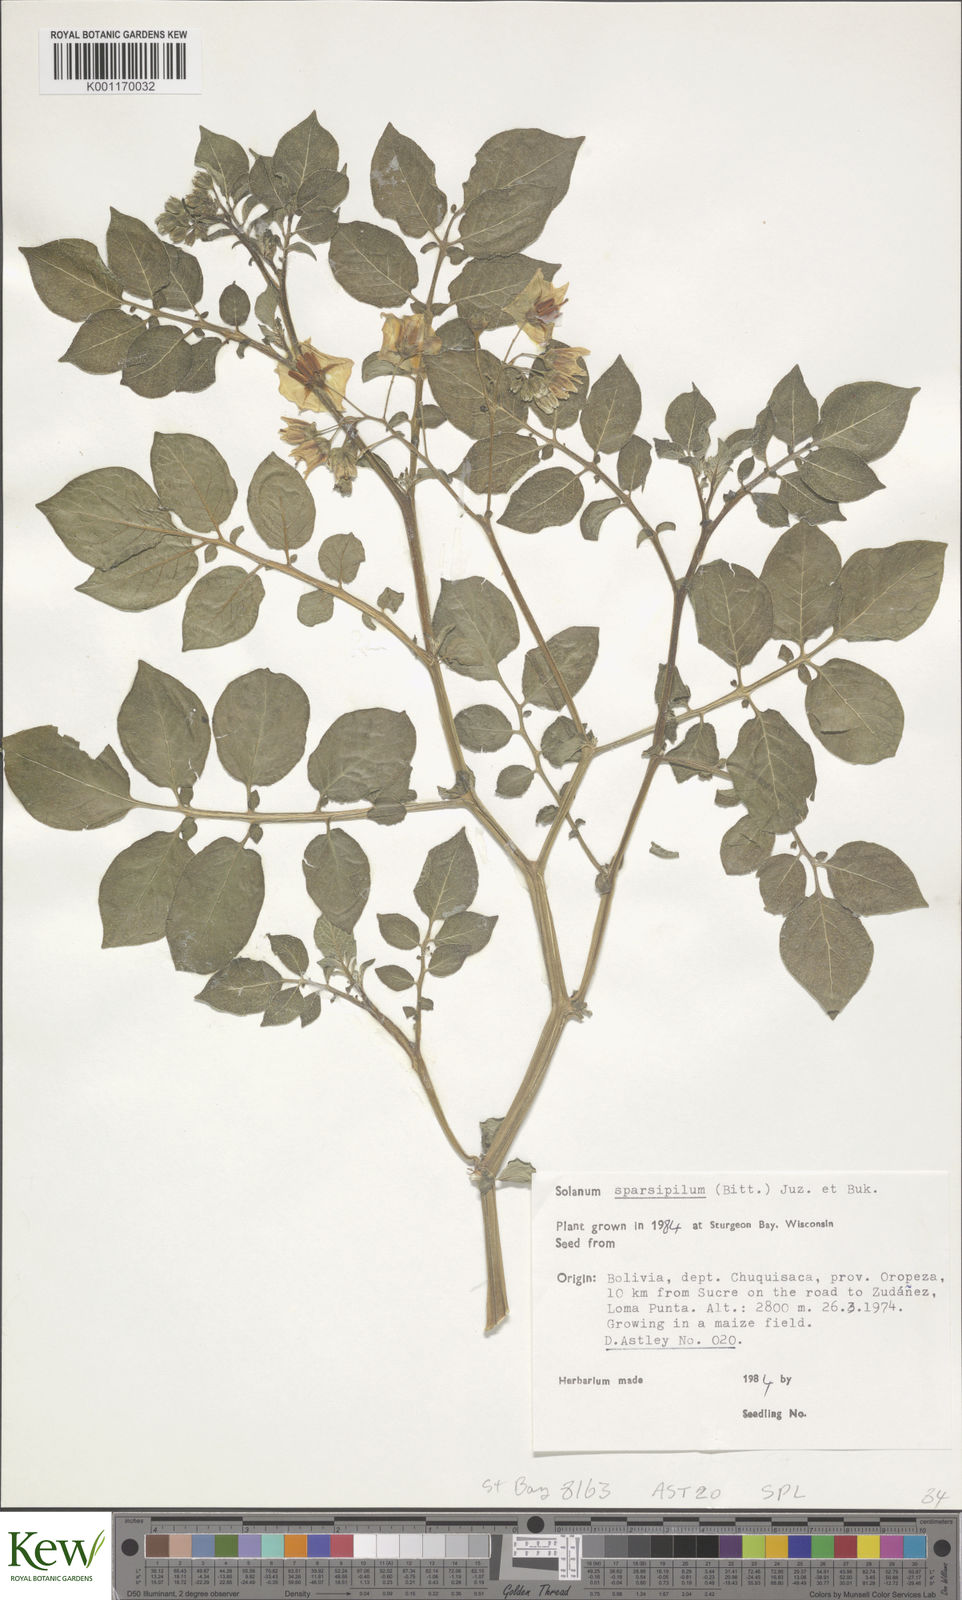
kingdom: Plantae
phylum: Tracheophyta
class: Magnoliopsida
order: Solanales
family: Solanaceae
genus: Solanum
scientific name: Solanum brevicaule
